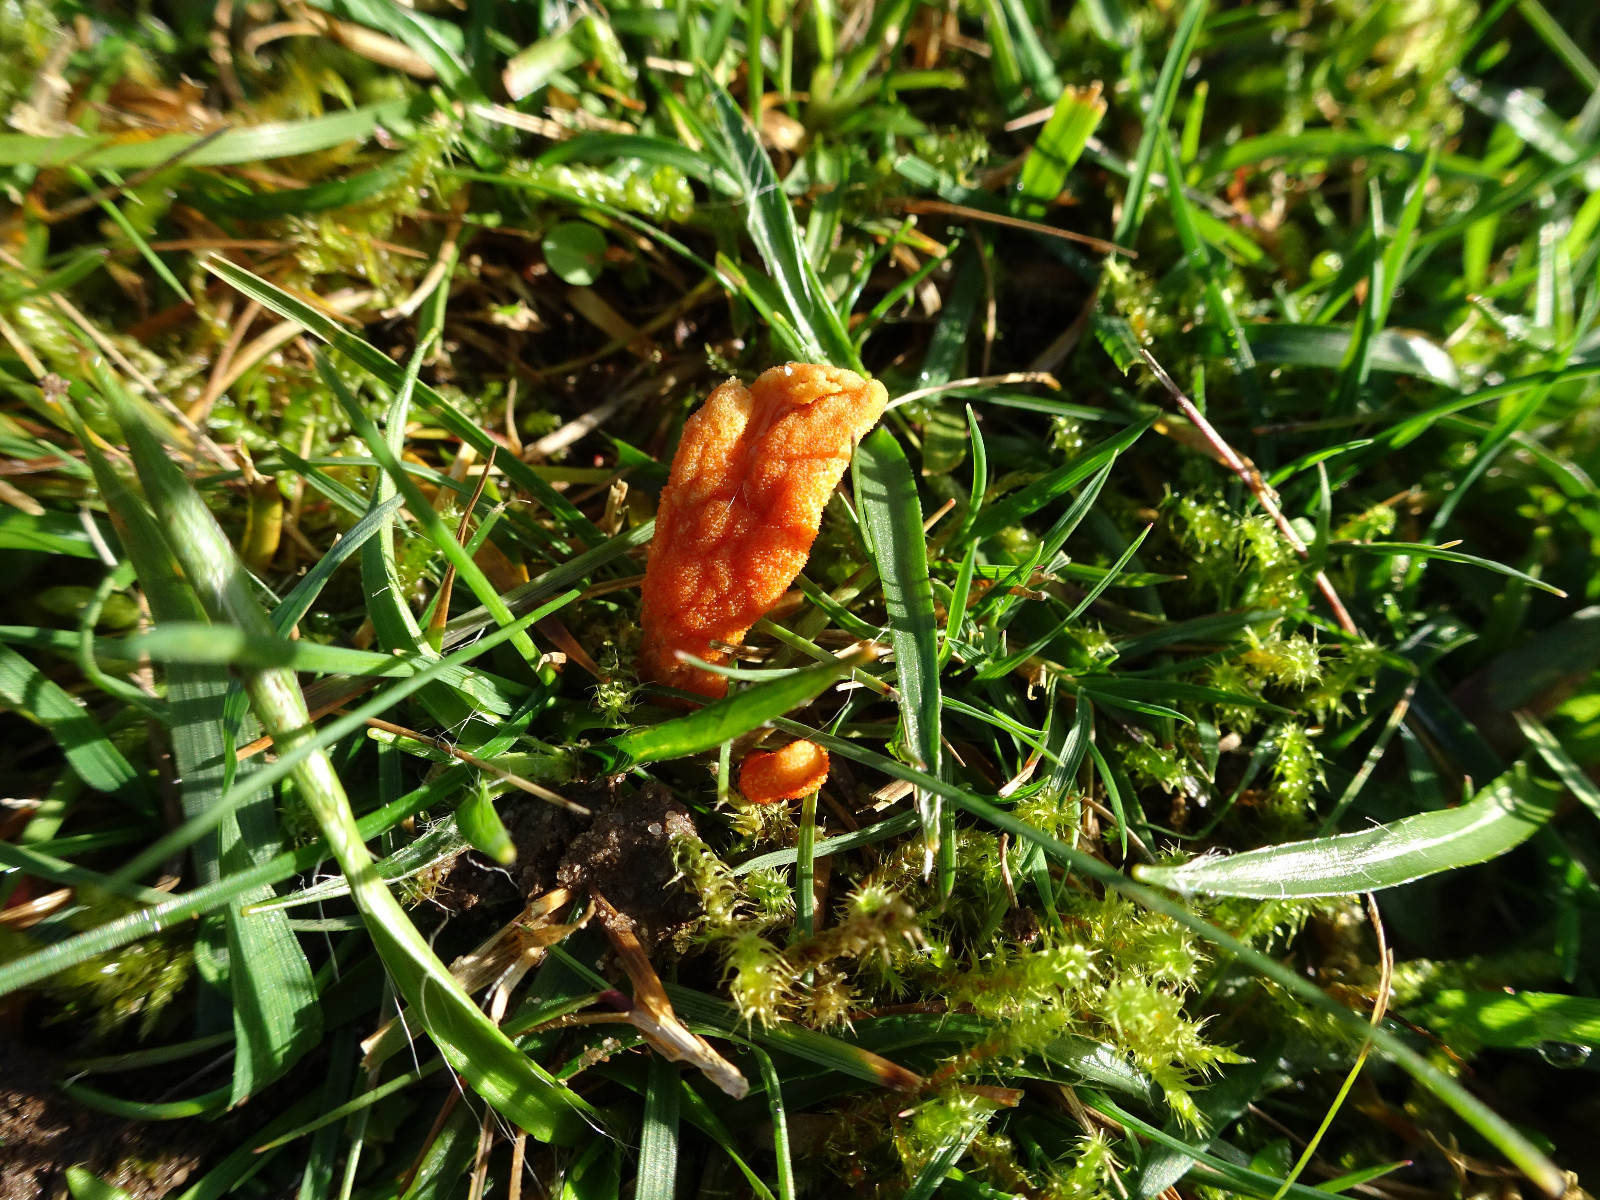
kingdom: Fungi
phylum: Ascomycota
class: Sordariomycetes
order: Hypocreales
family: Cordycipitaceae
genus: Cordyceps
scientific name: Cordyceps militaris
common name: puppe-snyltekølle
